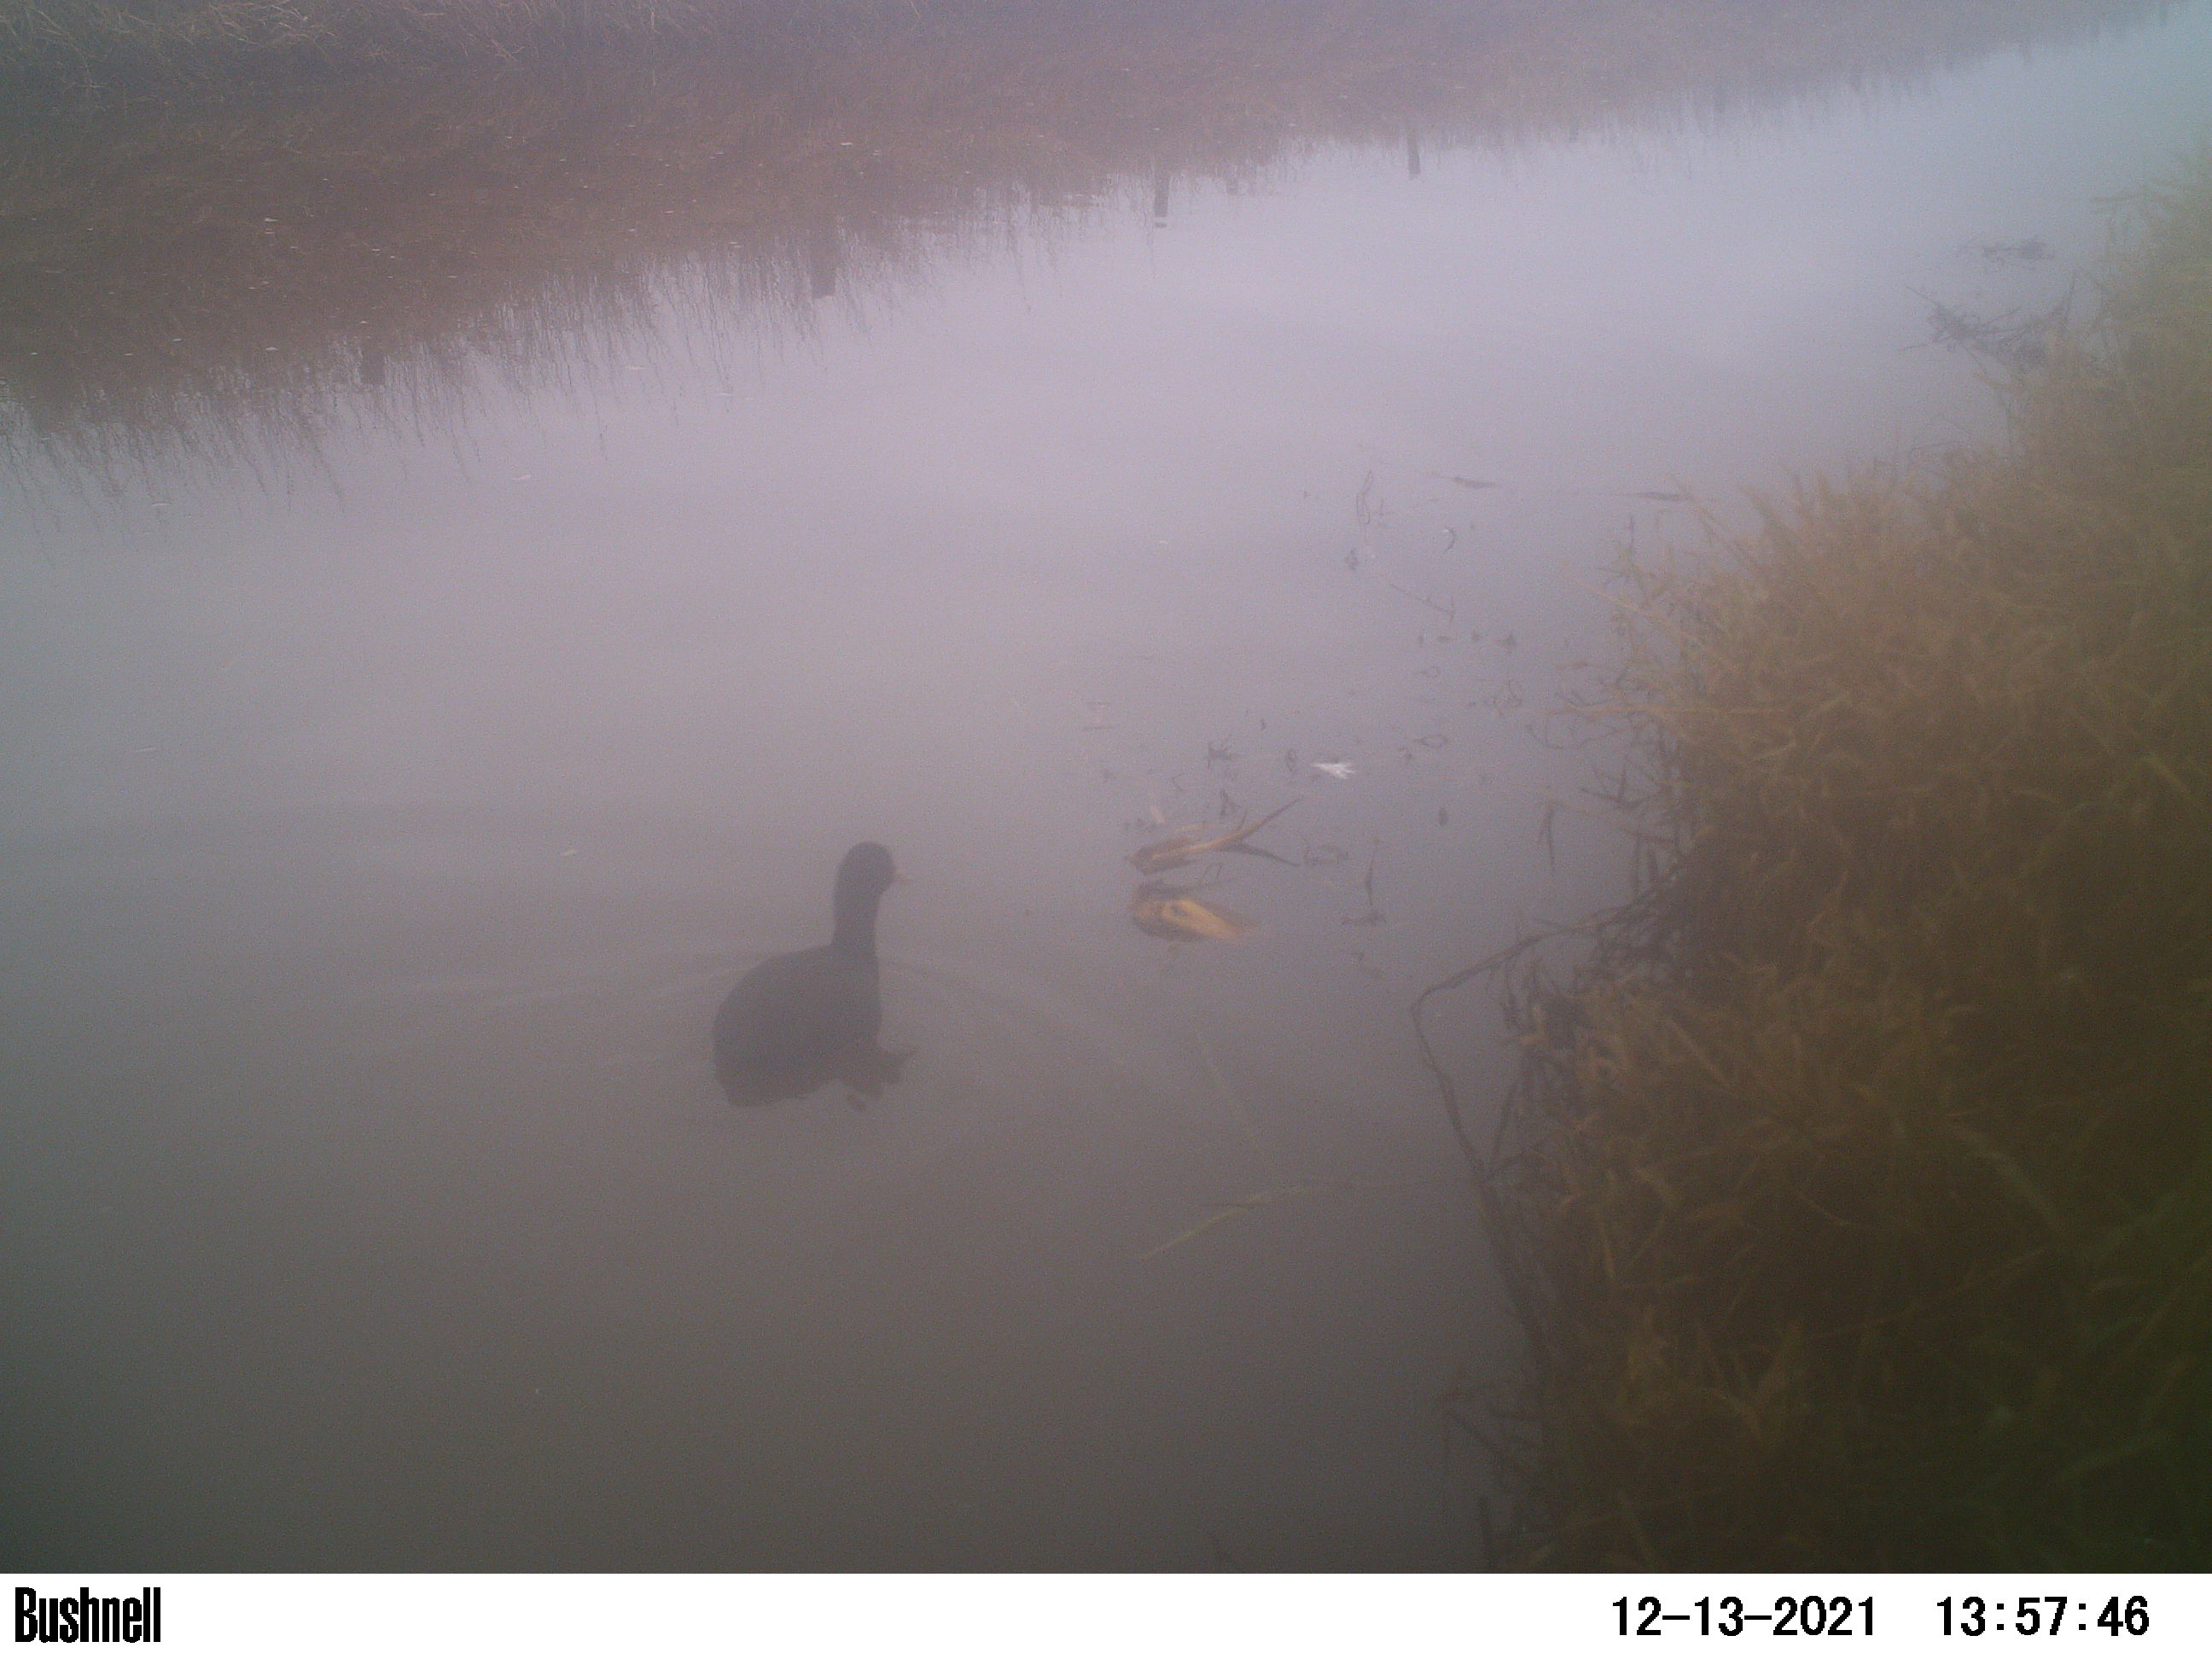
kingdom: Animalia
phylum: Chordata
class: Aves
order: Gruiformes
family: Rallidae
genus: Fulica
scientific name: Fulica atra
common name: Eurasian coot
